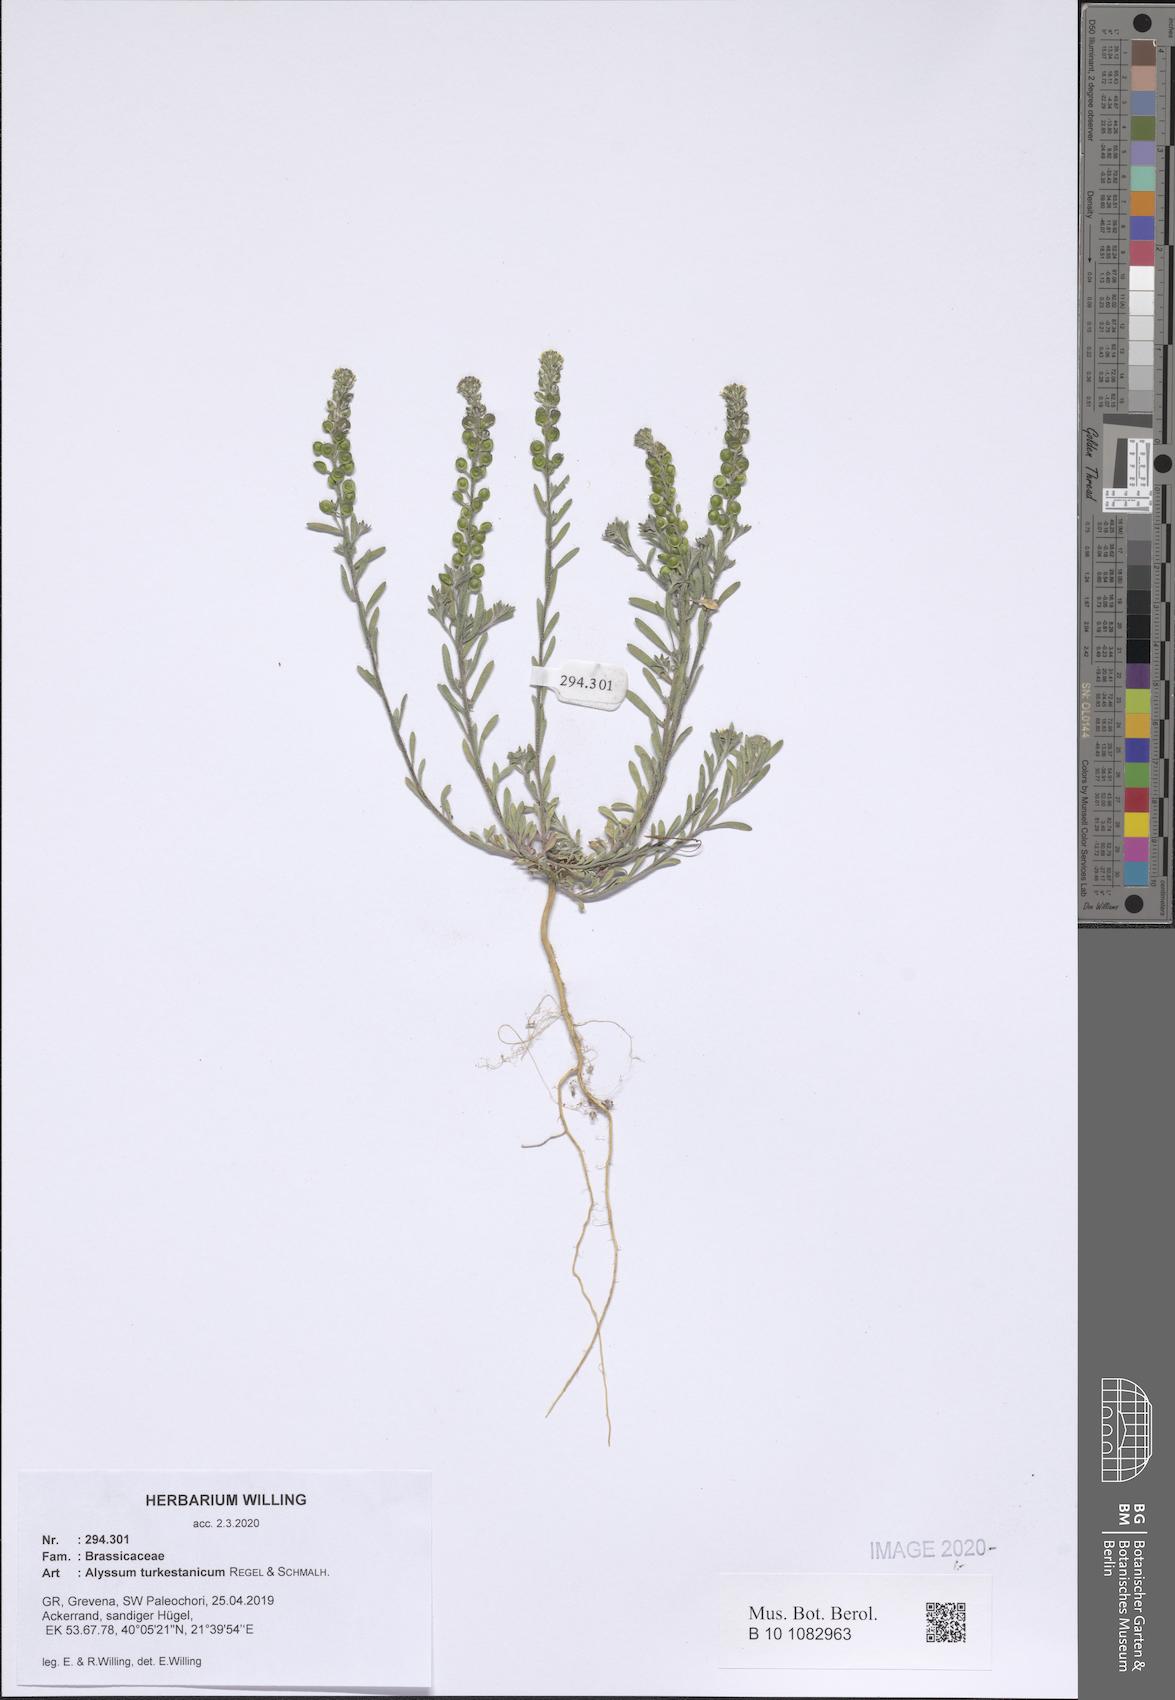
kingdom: Plantae
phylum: Tracheophyta
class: Magnoliopsida
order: Brassicales
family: Brassicaceae
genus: Alyssum
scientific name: Alyssum turkestanicum
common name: Desert alyssum
